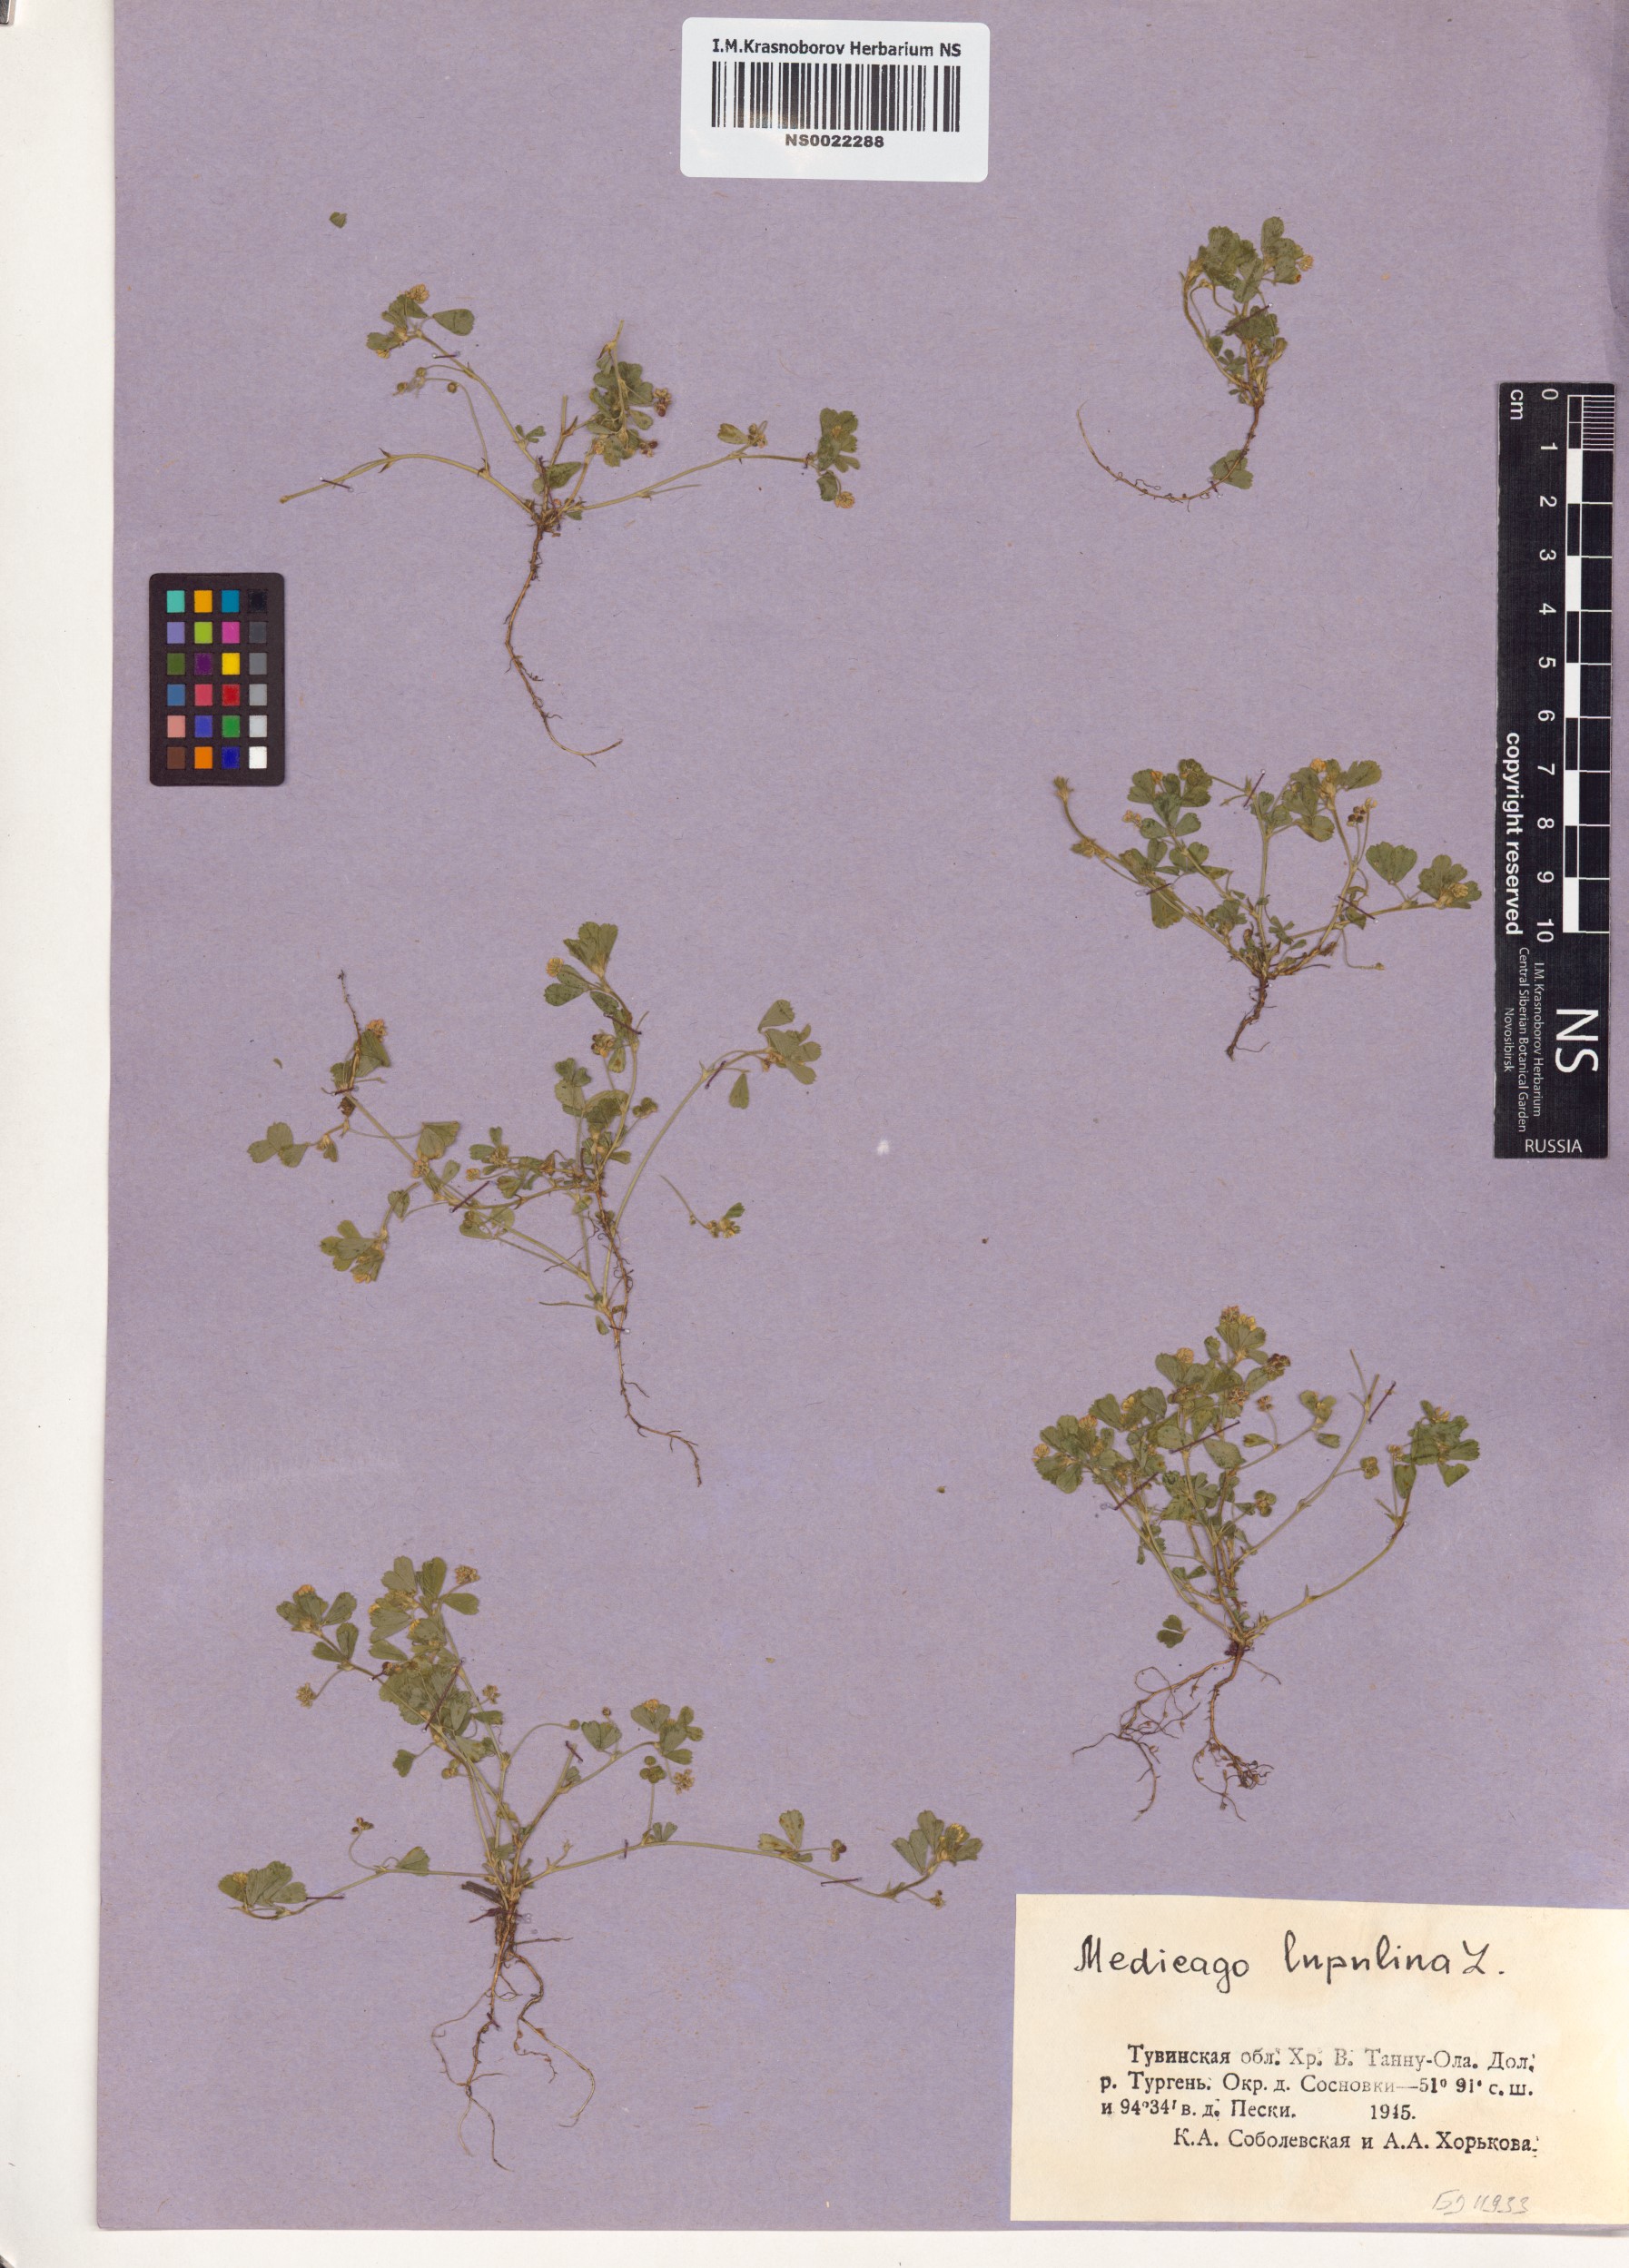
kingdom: Plantae
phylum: Tracheophyta
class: Magnoliopsida
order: Fabales
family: Fabaceae
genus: Medicago
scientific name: Medicago lupulina
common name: Black medick
